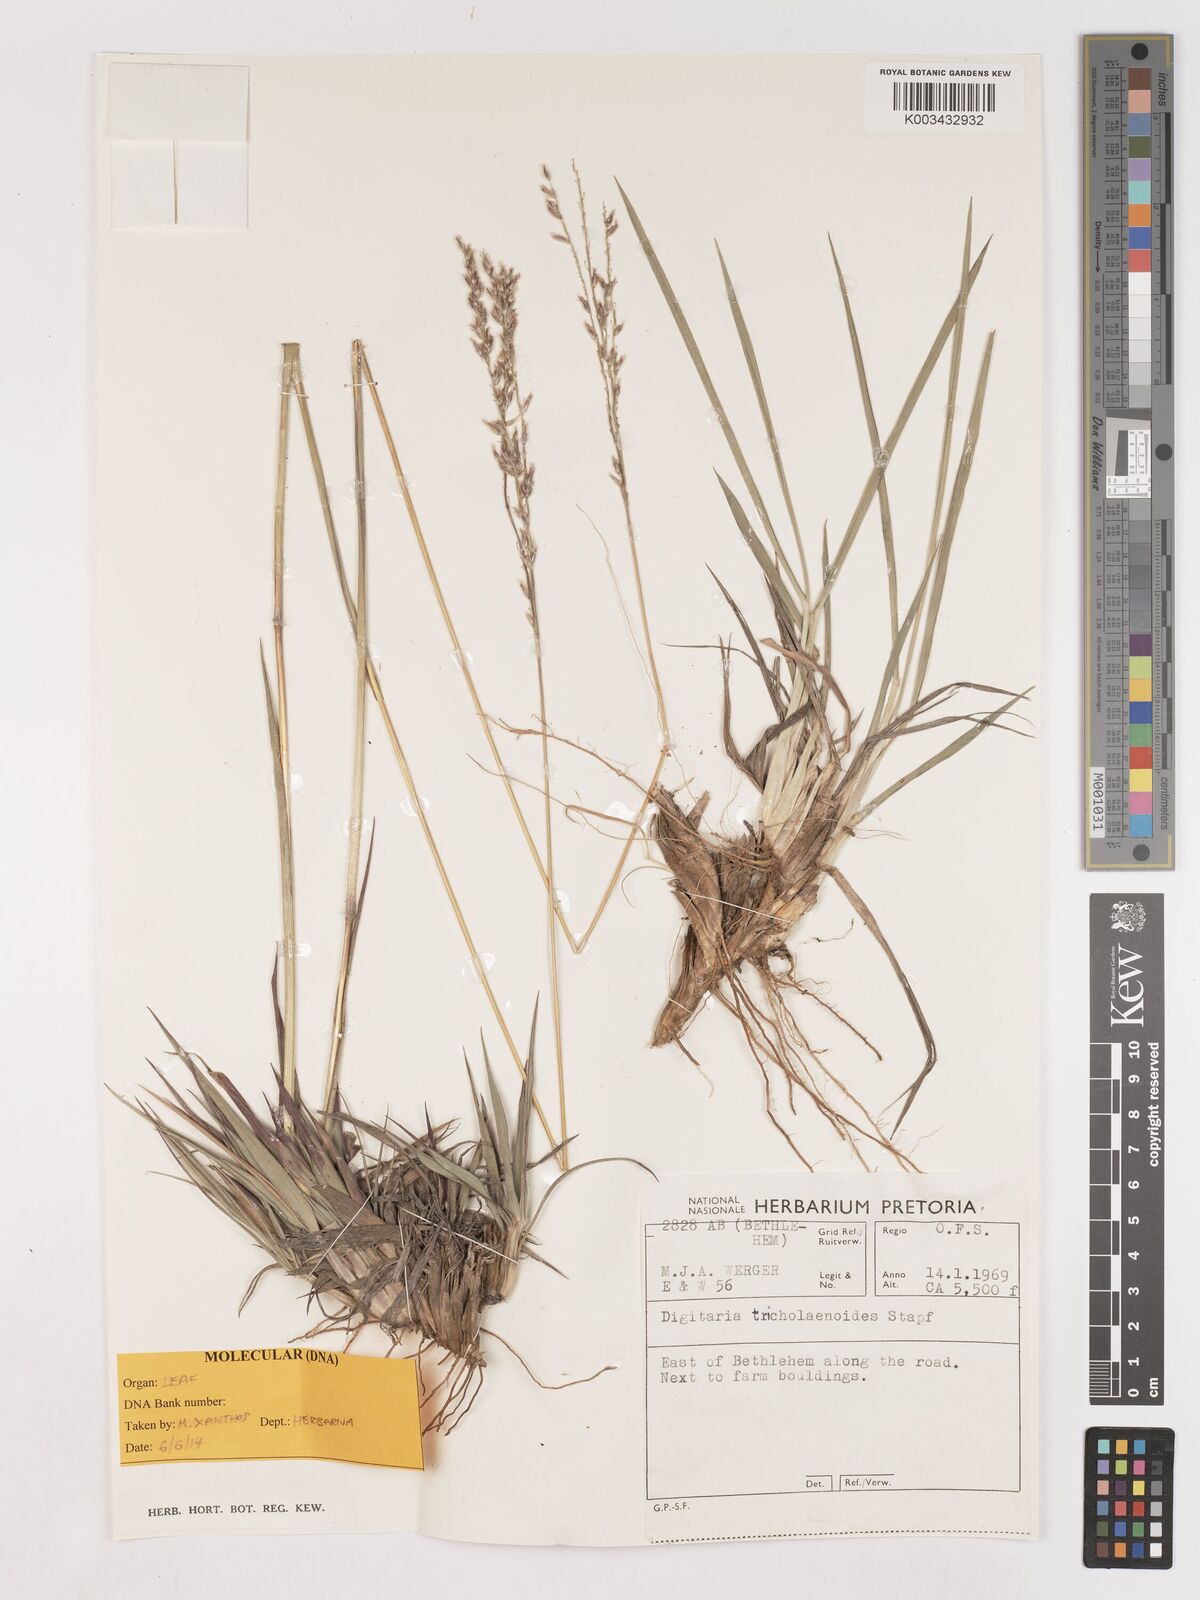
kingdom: Plantae
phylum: Tracheophyta
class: Liliopsida
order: Poales
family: Poaceae
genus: Digitaria
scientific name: Digitaria tricholaenoides
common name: Purple finger grass
